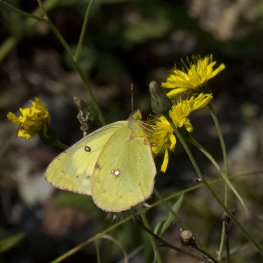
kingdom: Animalia
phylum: Arthropoda
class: Insecta
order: Lepidoptera
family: Pieridae
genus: Colias
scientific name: Colias philodice
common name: Clouded Sulphur
